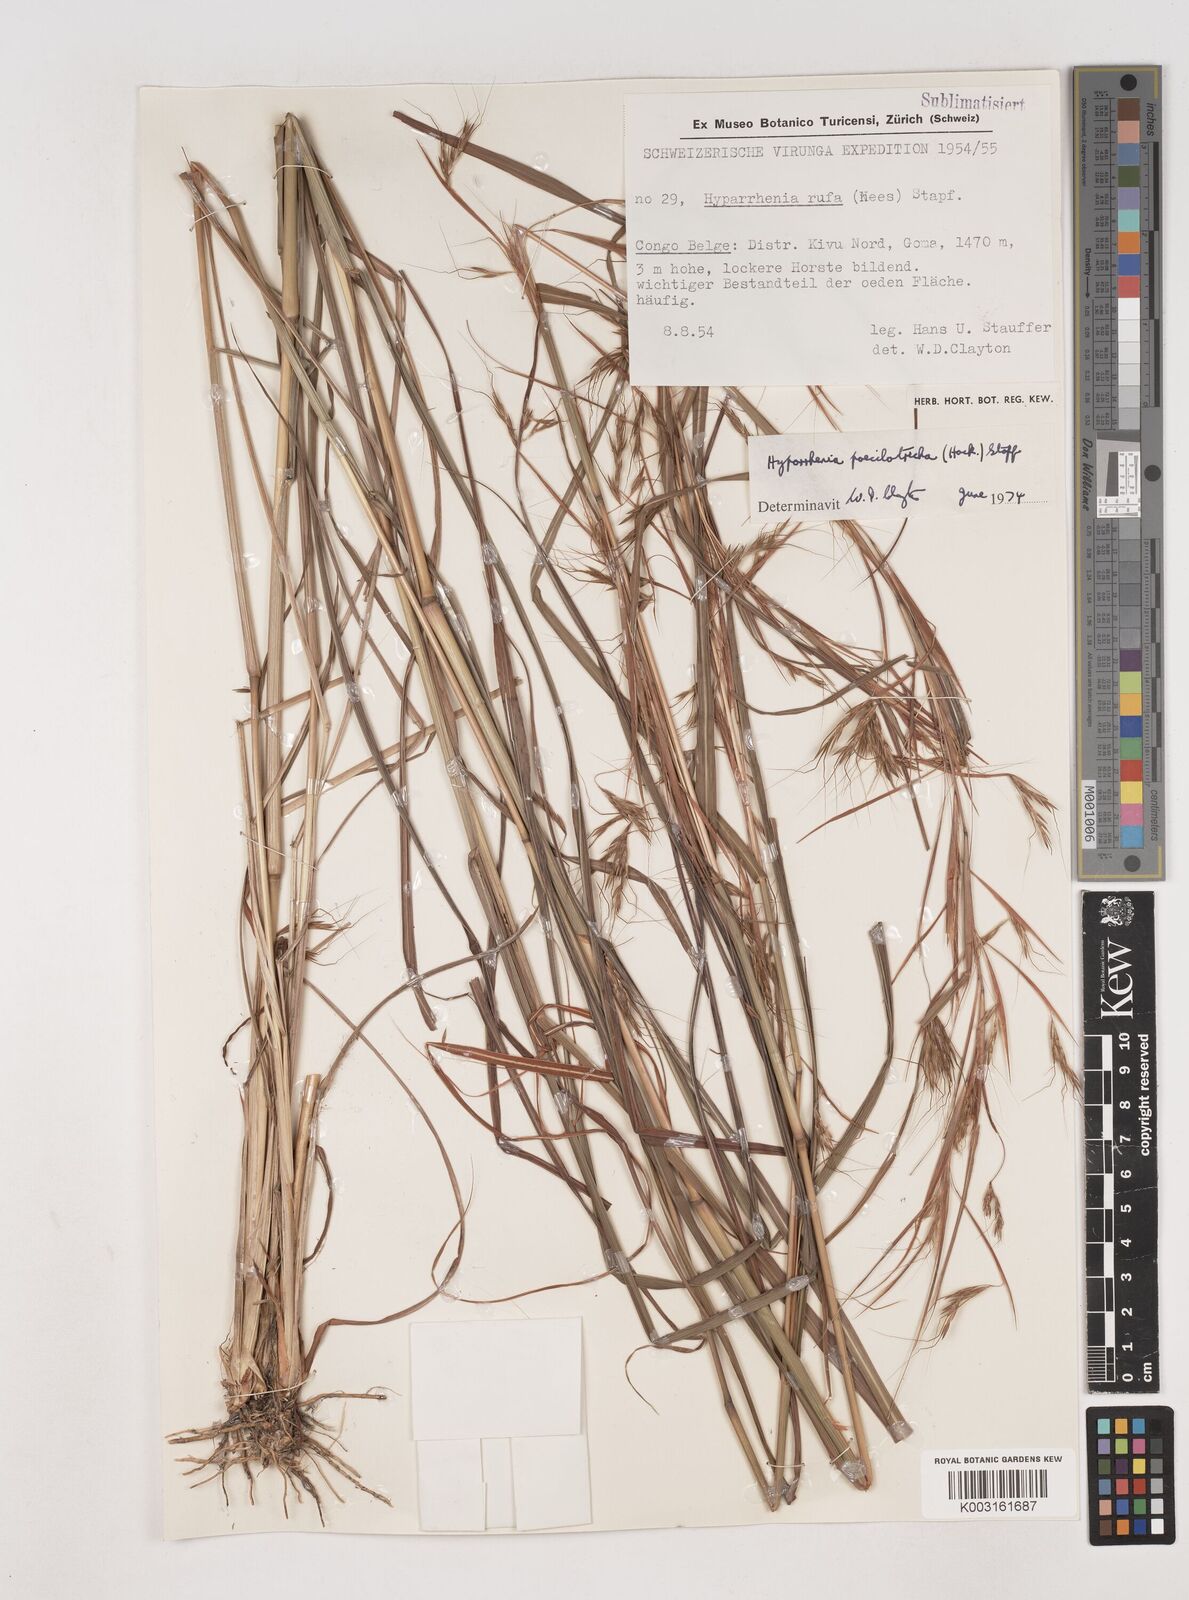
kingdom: Plantae
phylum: Tracheophyta
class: Liliopsida
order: Poales
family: Poaceae
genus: Hyparrhenia
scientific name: Hyparrhenia poecilotricha
